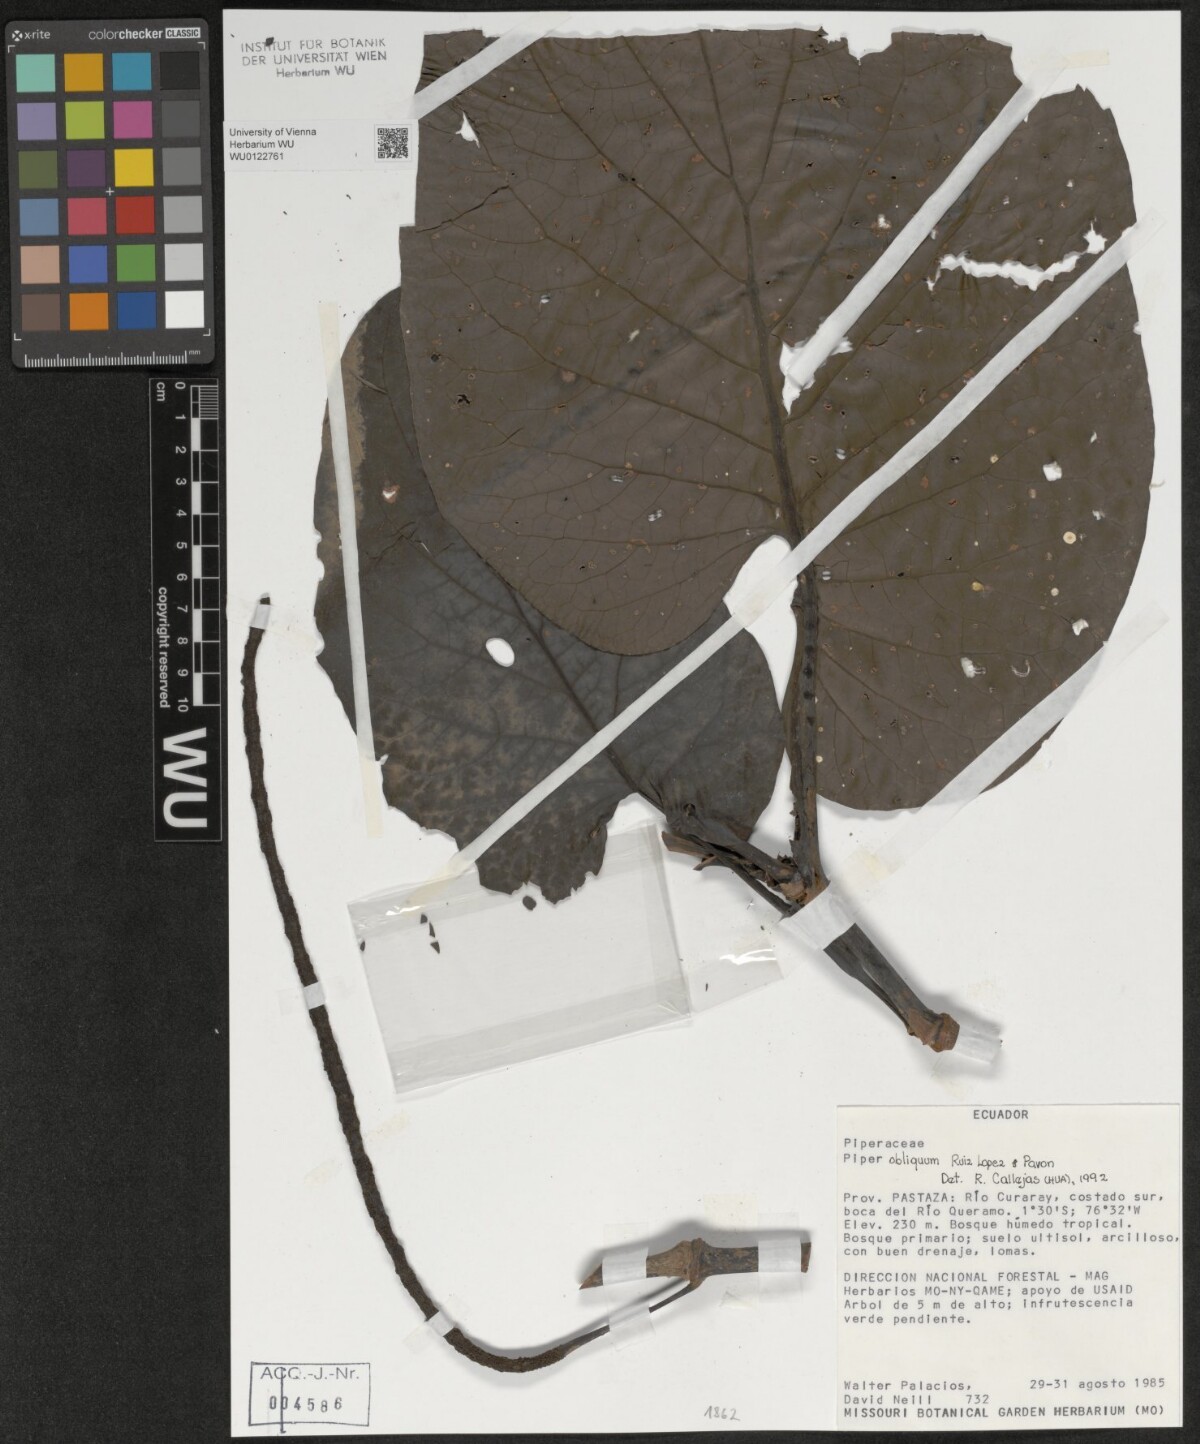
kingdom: Plantae
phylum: Tracheophyta
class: Magnoliopsida
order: Piperales
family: Piperaceae
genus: Piper
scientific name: Piper obliquum
